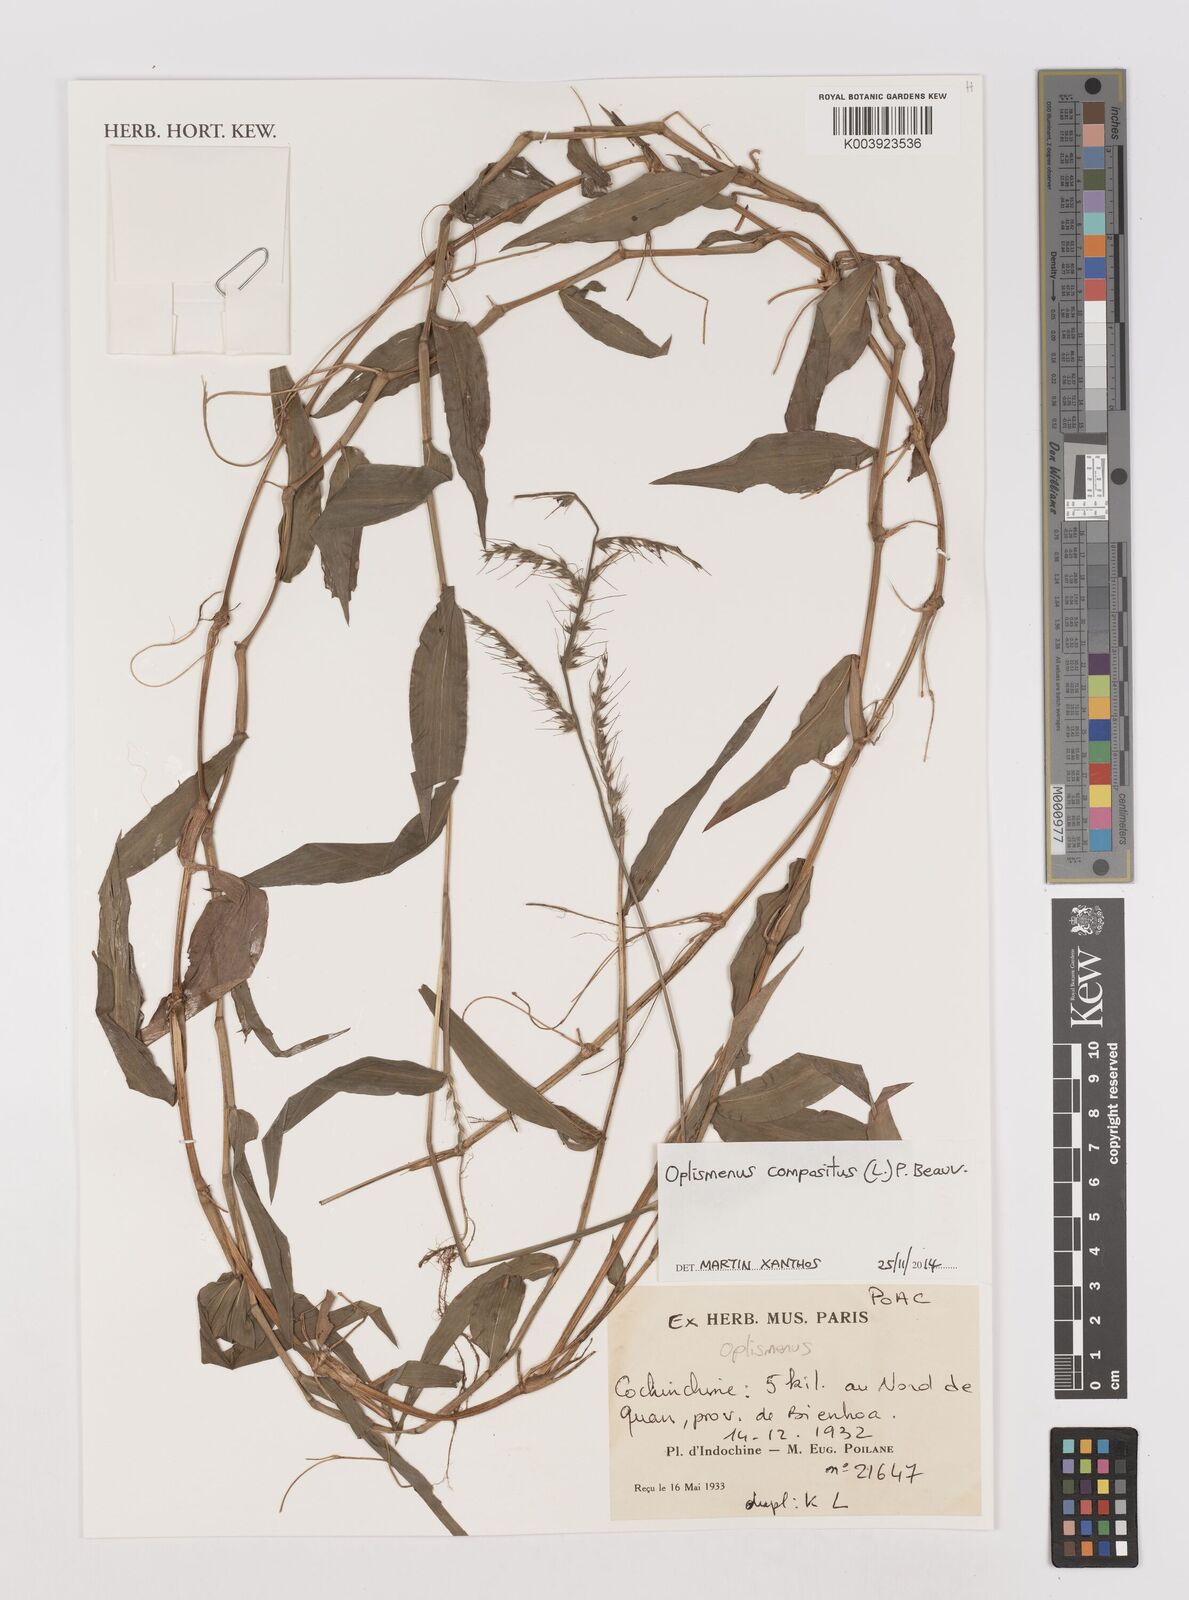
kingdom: Plantae
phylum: Tracheophyta
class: Liliopsida
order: Poales
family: Poaceae
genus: Oplismenus
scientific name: Oplismenus compositus
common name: Running mountain grass
